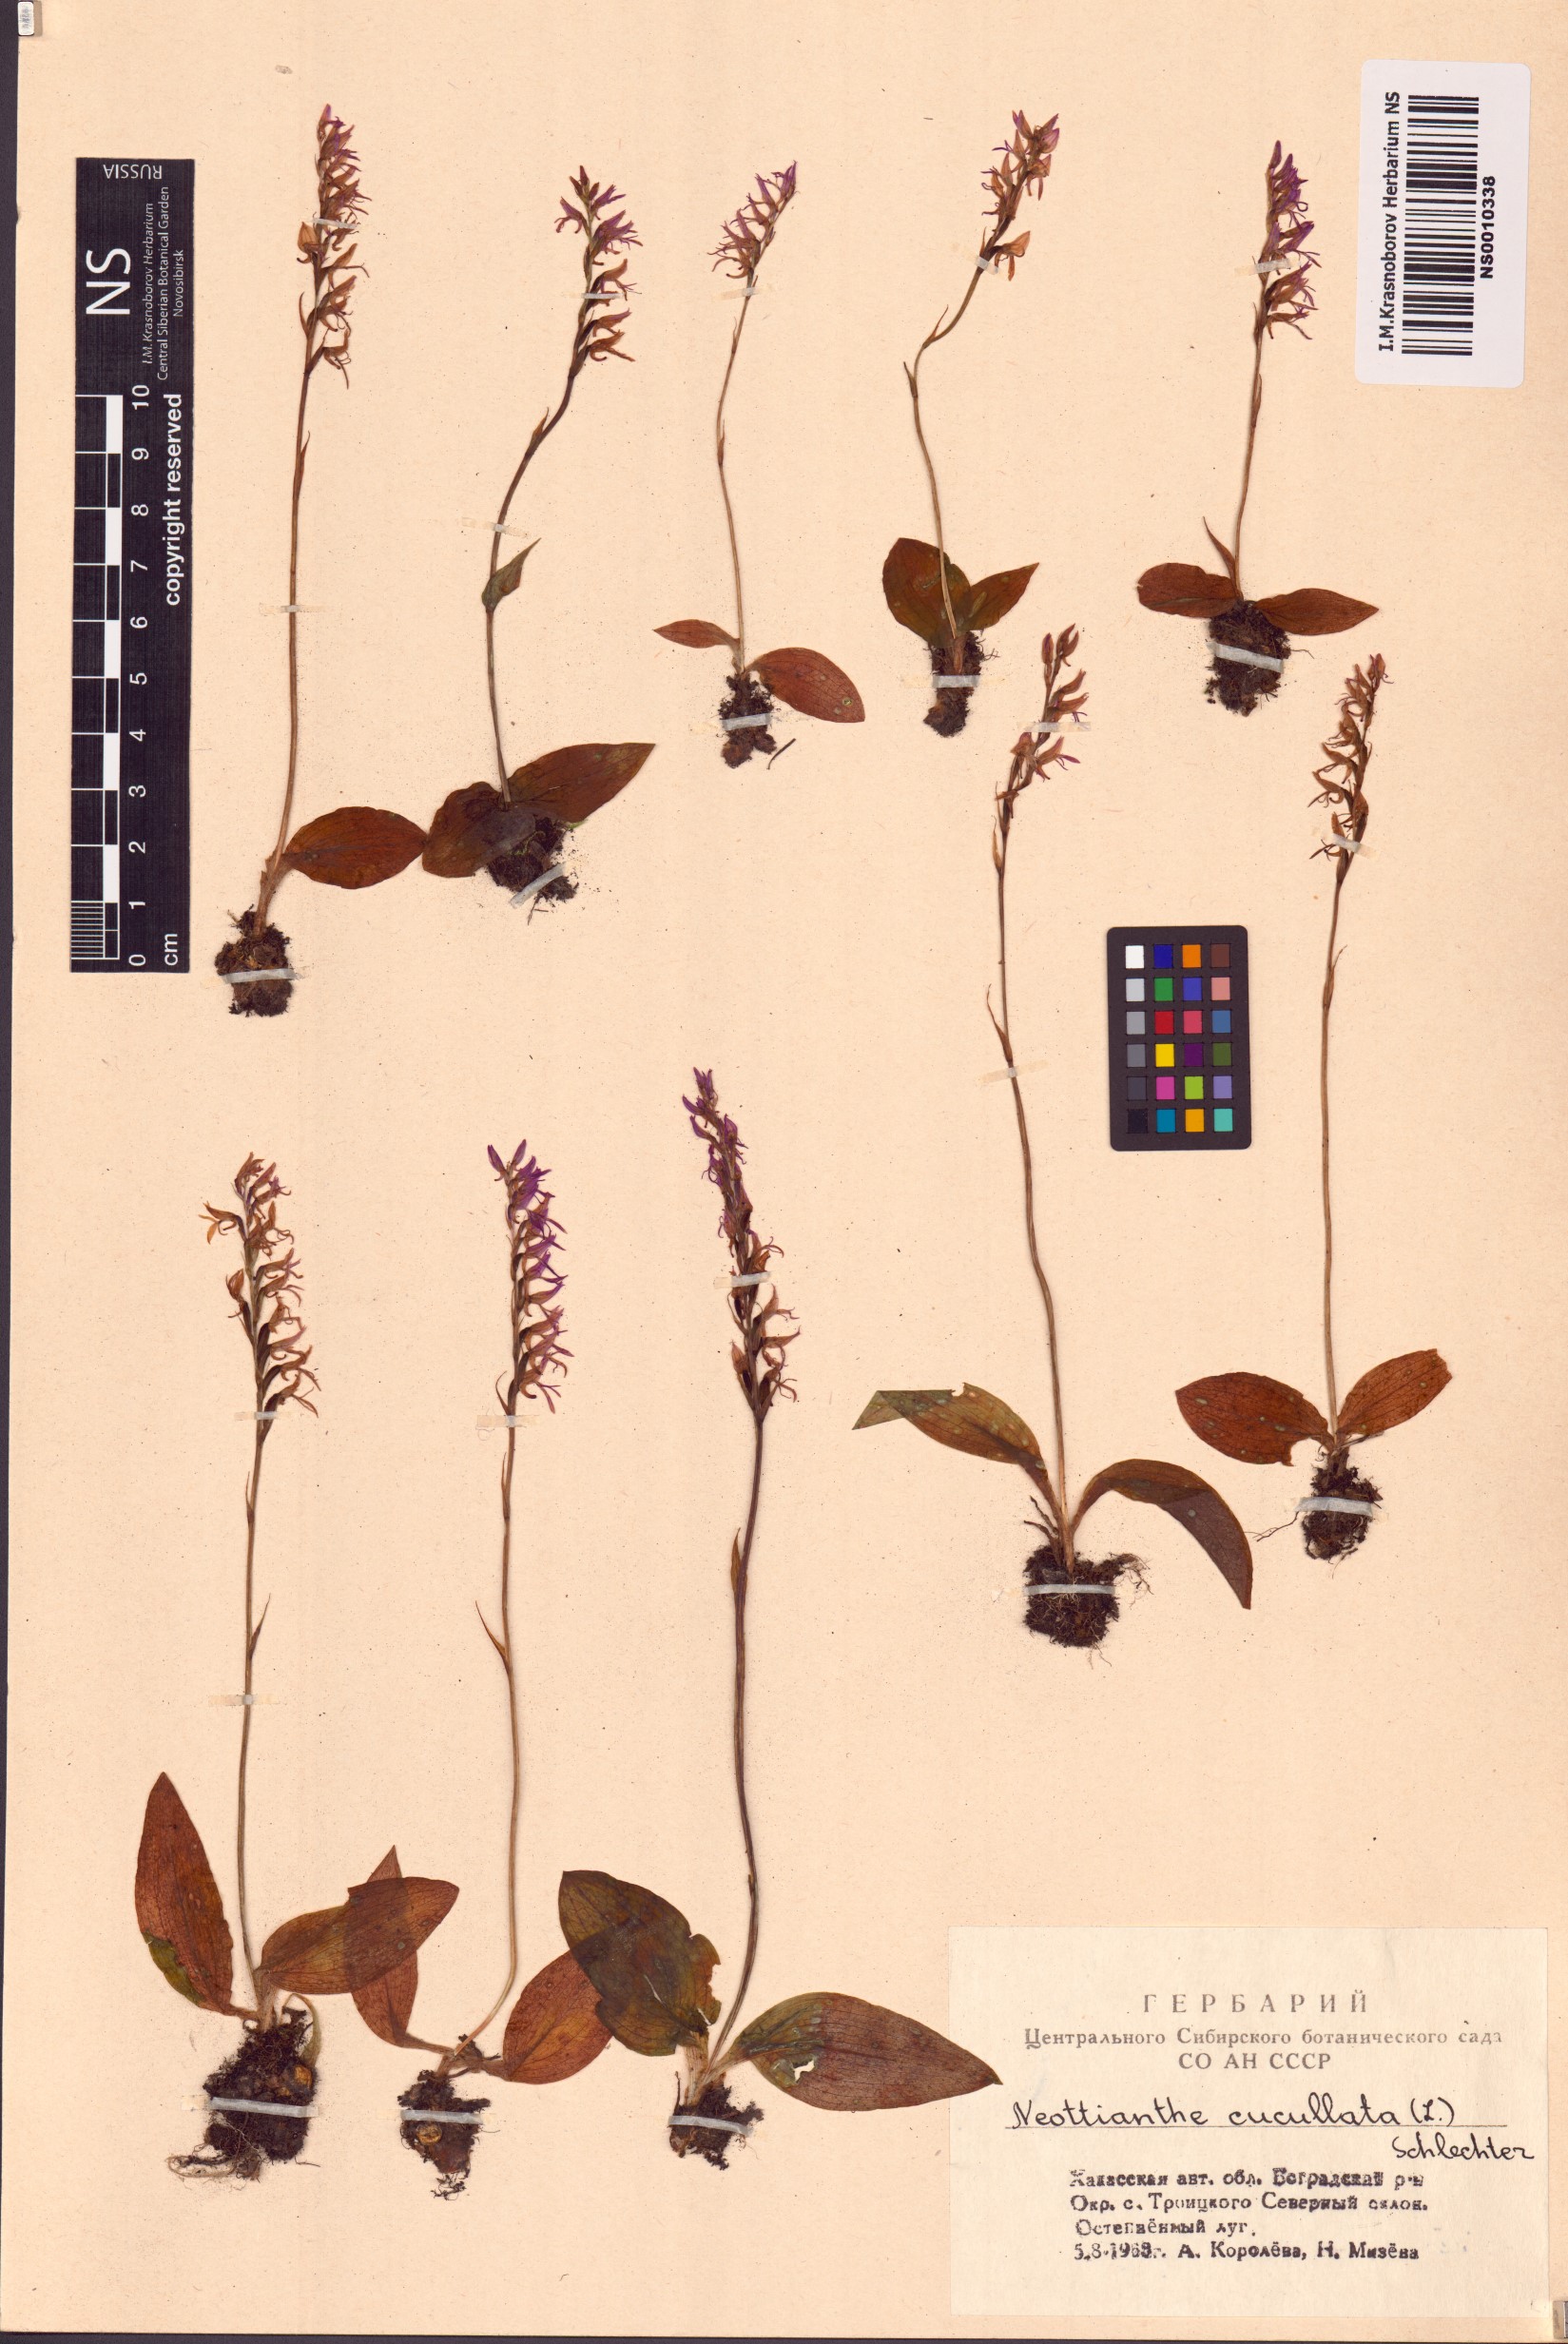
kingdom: Plantae
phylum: Tracheophyta
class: Liliopsida
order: Asparagales
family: Orchidaceae
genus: Hemipilia
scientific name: Hemipilia cucullata
